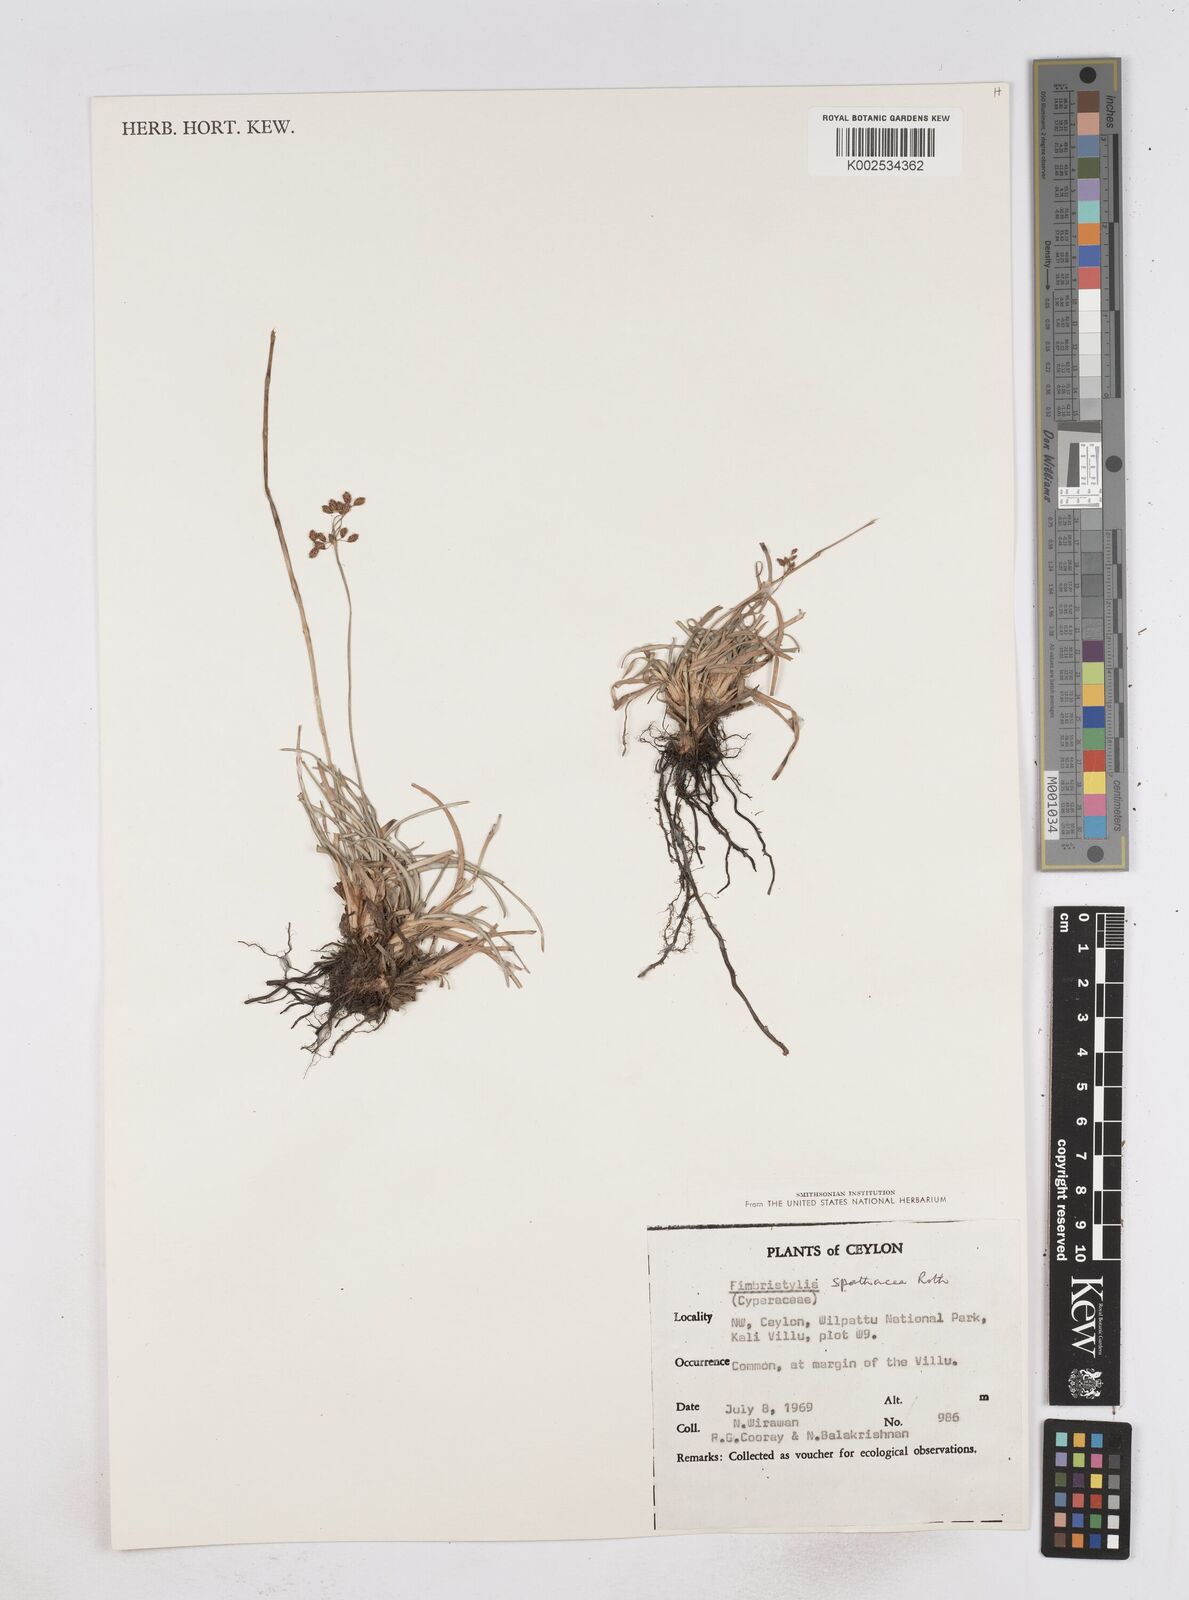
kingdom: Plantae
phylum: Tracheophyta
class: Liliopsida
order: Poales
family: Cyperaceae
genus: Fimbristylis
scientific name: Fimbristylis cymosa
